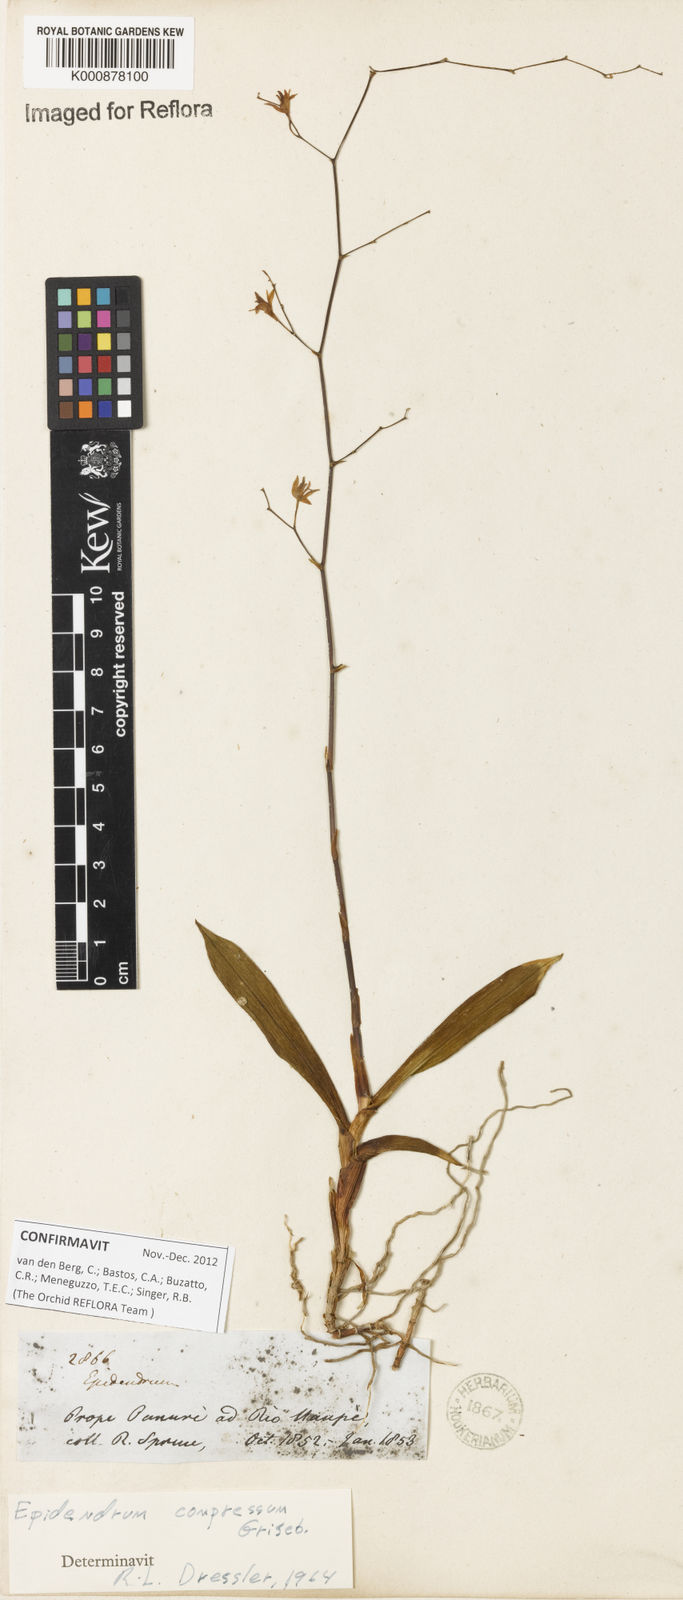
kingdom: Plantae
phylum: Tracheophyta
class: Liliopsida
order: Asparagales
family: Orchidaceae
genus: Epidendrum
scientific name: Epidendrum compressum
